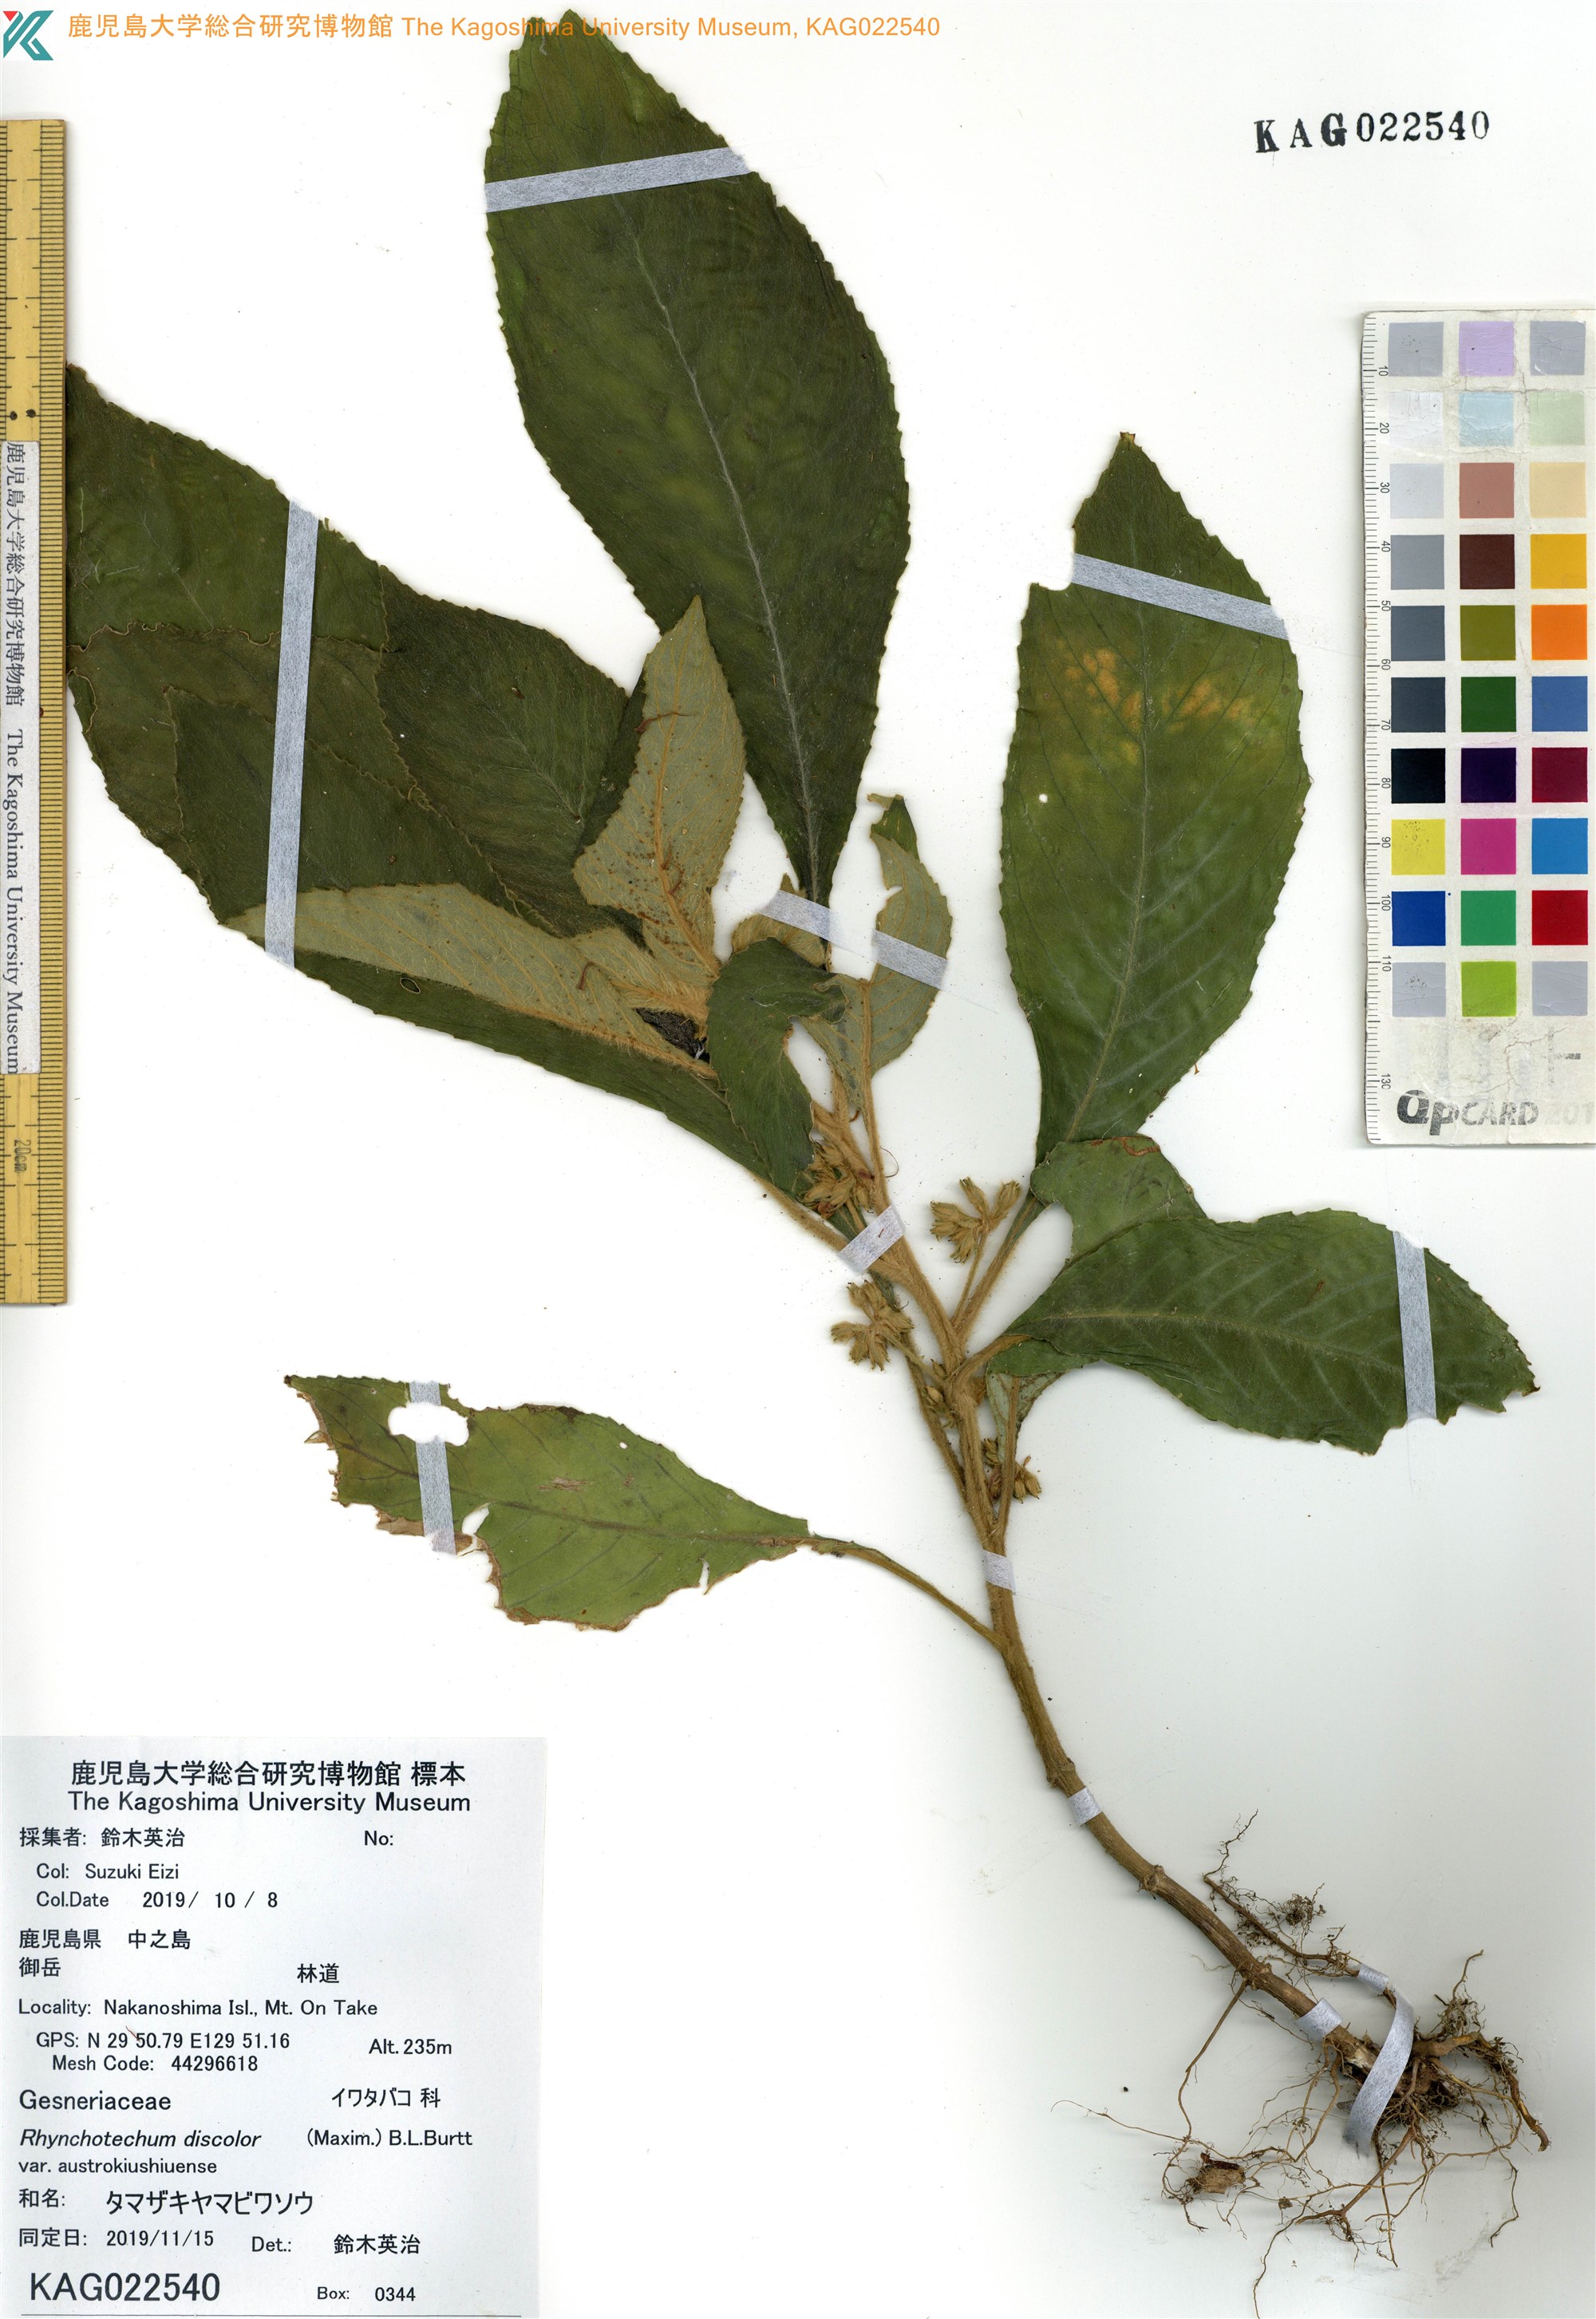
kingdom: Plantae
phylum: Tracheophyta
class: Magnoliopsida
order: Lamiales
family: Gesneriaceae
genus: Rhynchotechum
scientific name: Rhynchotechum discolor
